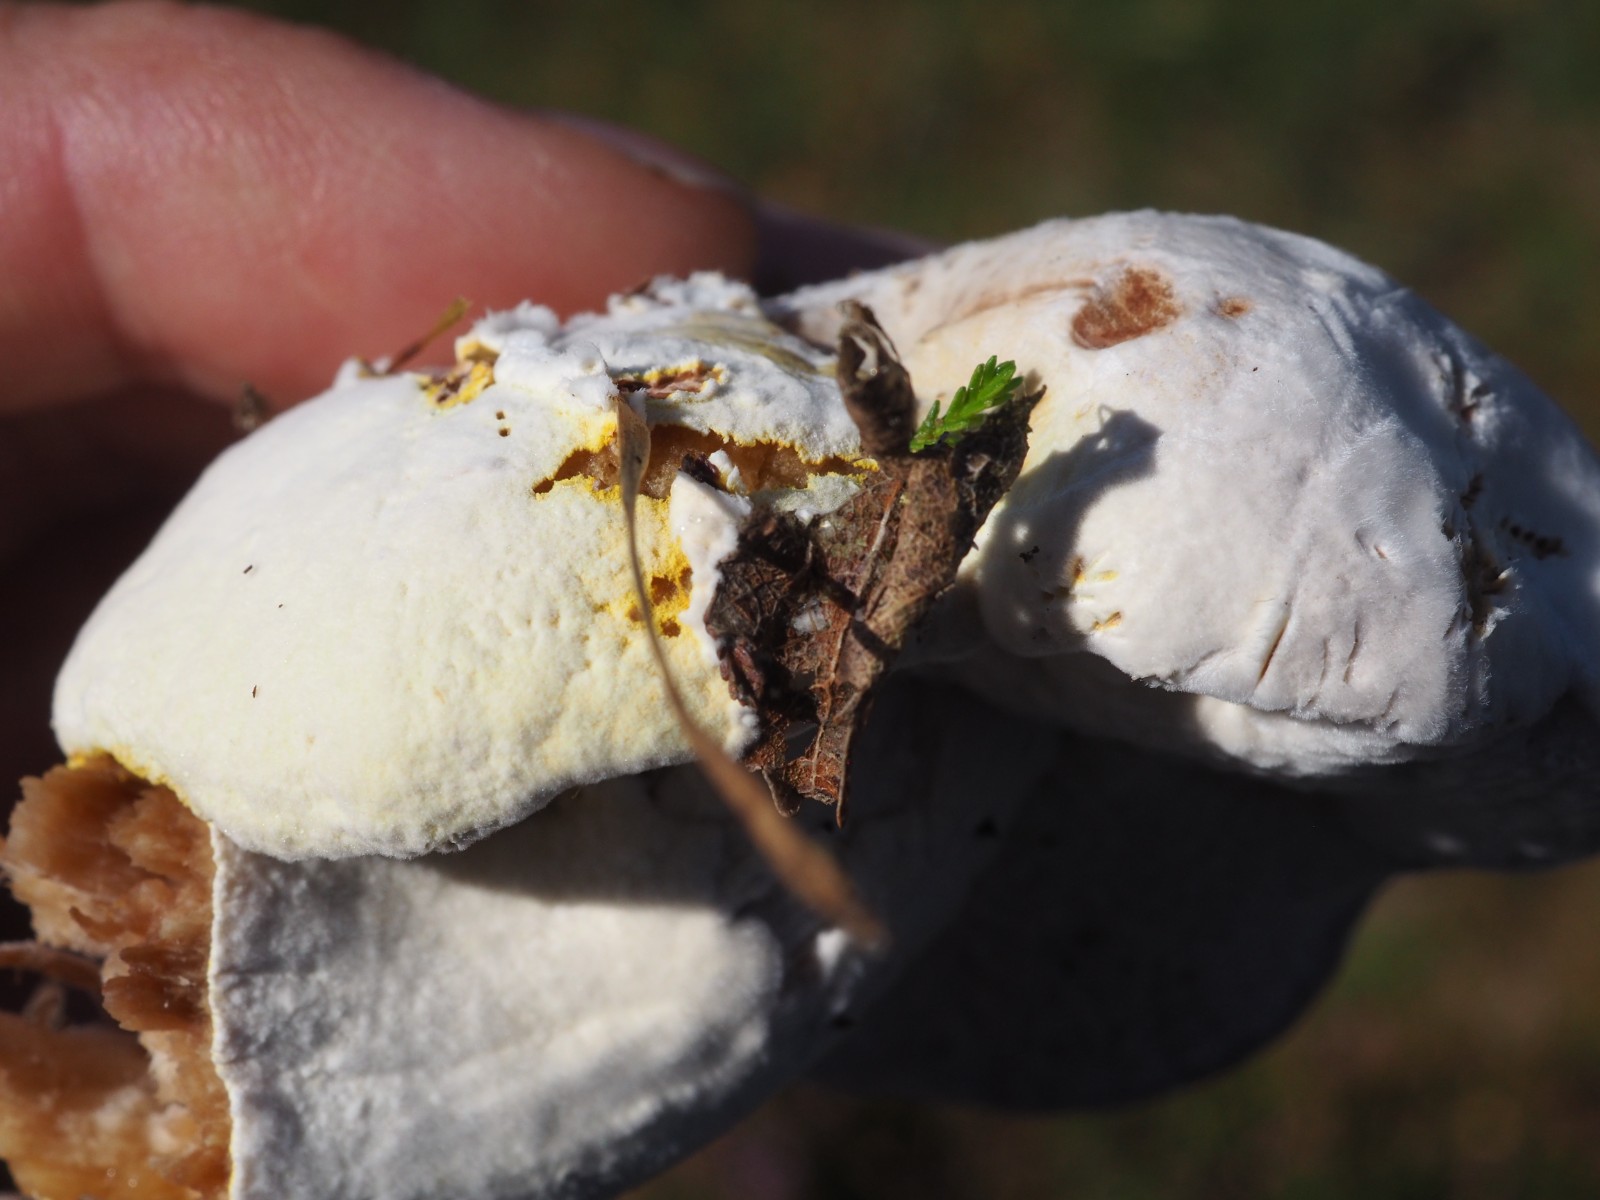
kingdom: Fungi
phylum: Ascomycota
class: Sordariomycetes
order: Hypocreales
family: Hypocreaceae
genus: Hypomyces
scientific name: Hypomyces
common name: snylteskorpe
